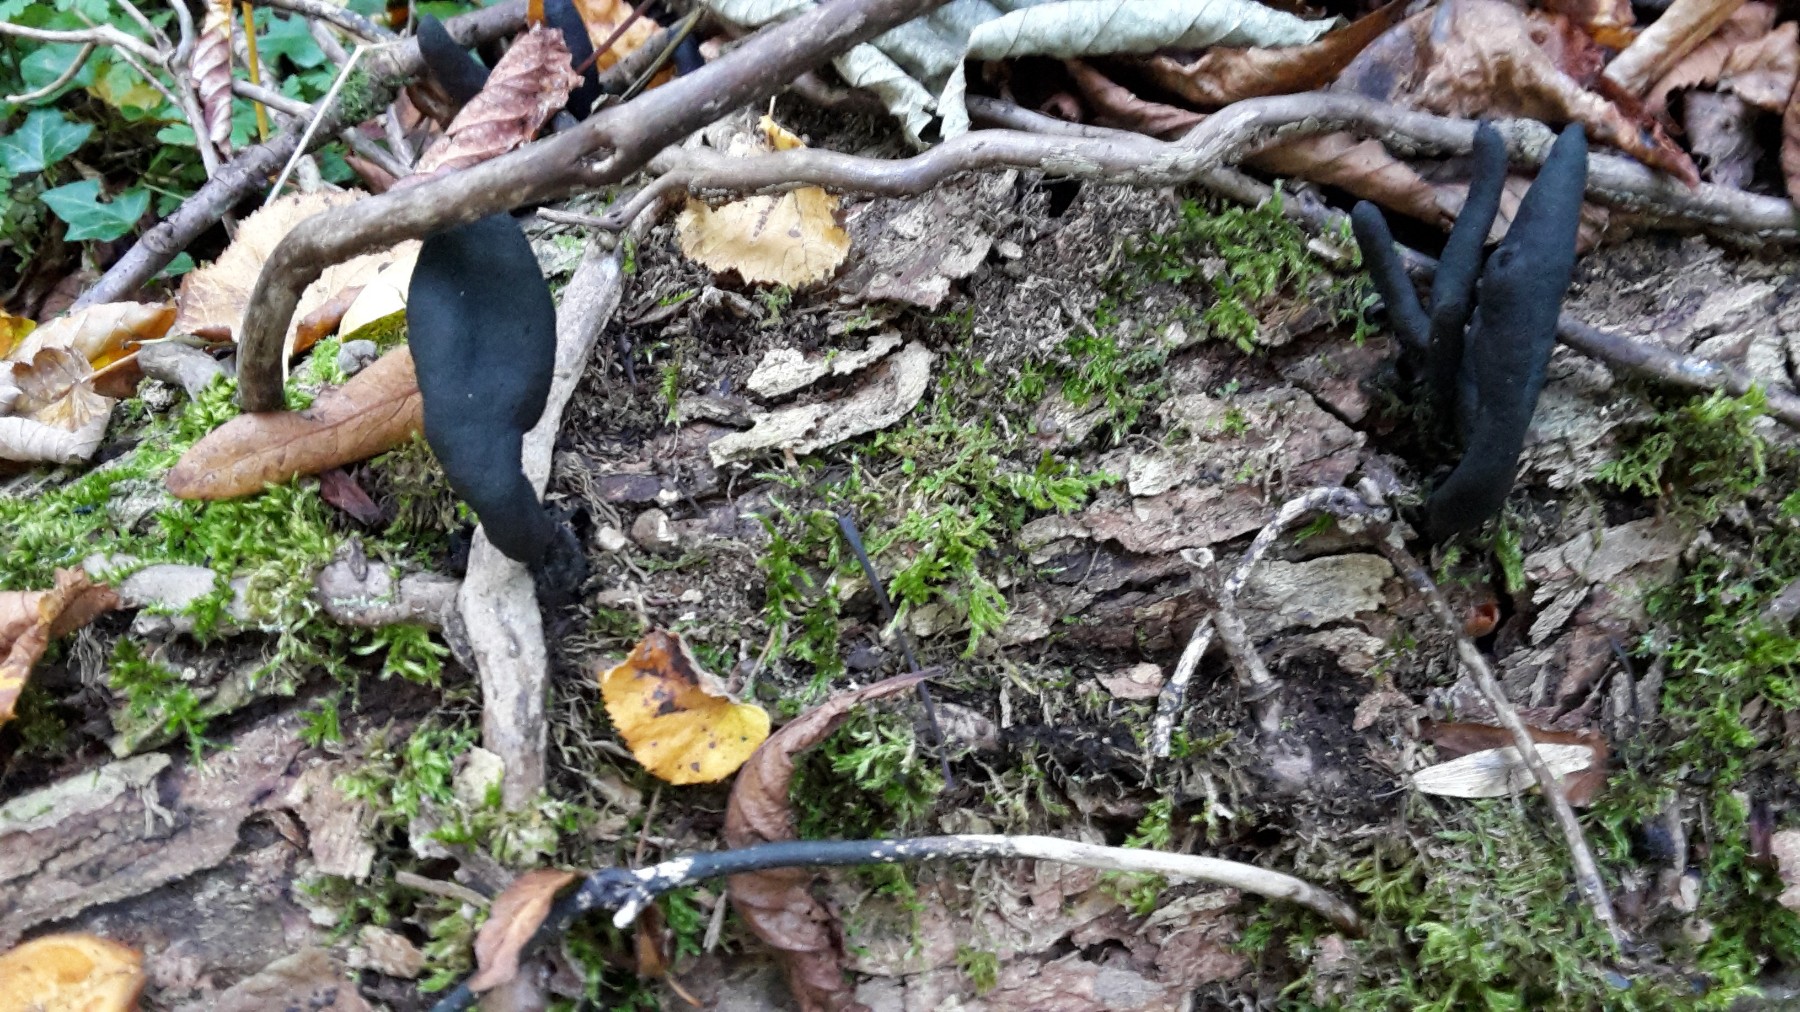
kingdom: Fungi
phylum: Ascomycota
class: Sordariomycetes
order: Xylariales
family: Xylariaceae
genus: Xylaria
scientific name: Xylaria longipes
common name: slank stødsvamp
